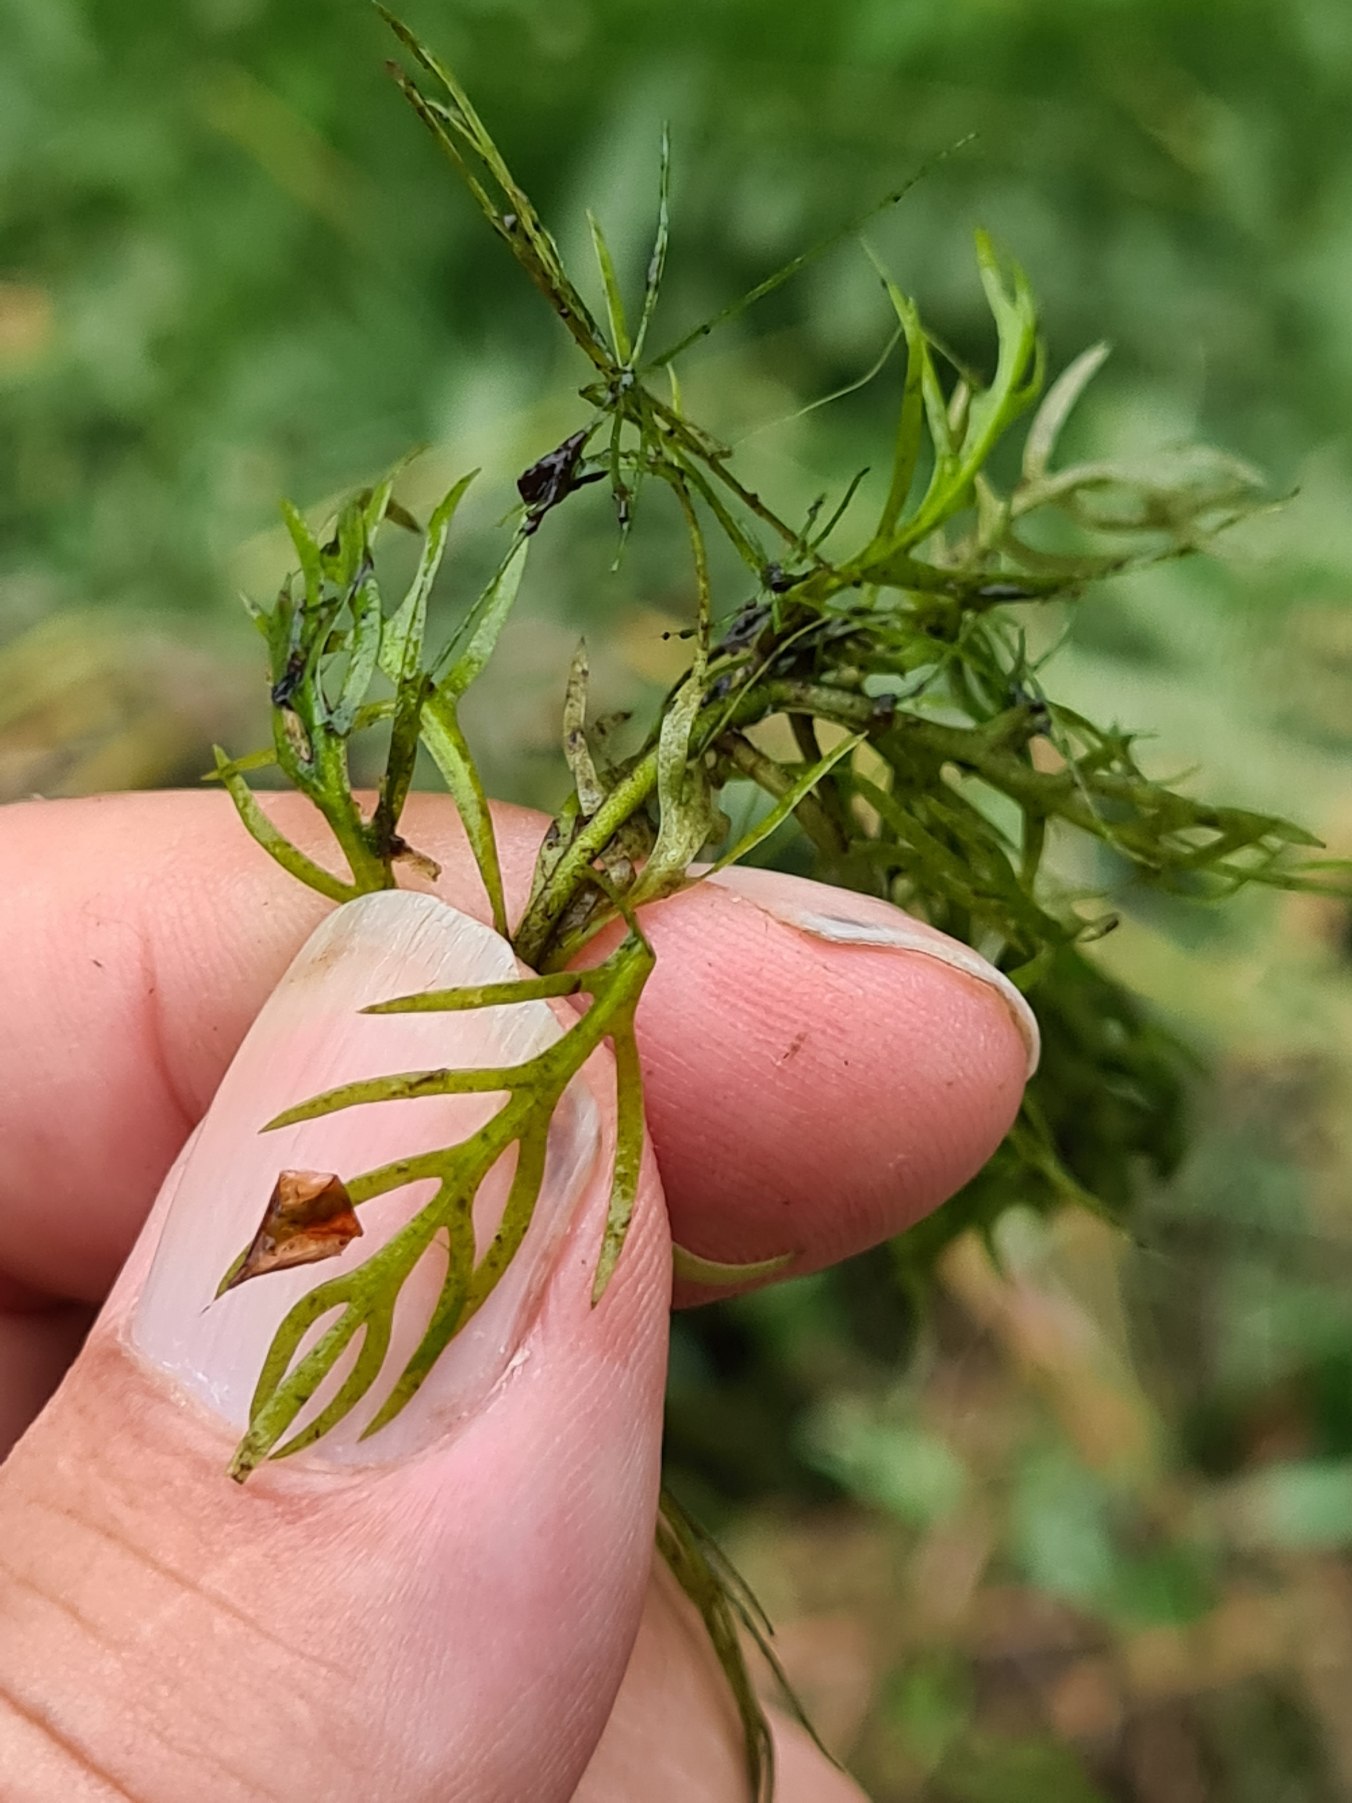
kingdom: Plantae
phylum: Tracheophyta
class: Magnoliopsida
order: Ericales
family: Primulaceae
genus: Hottonia
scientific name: Hottonia palustris
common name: Vandrøllike
